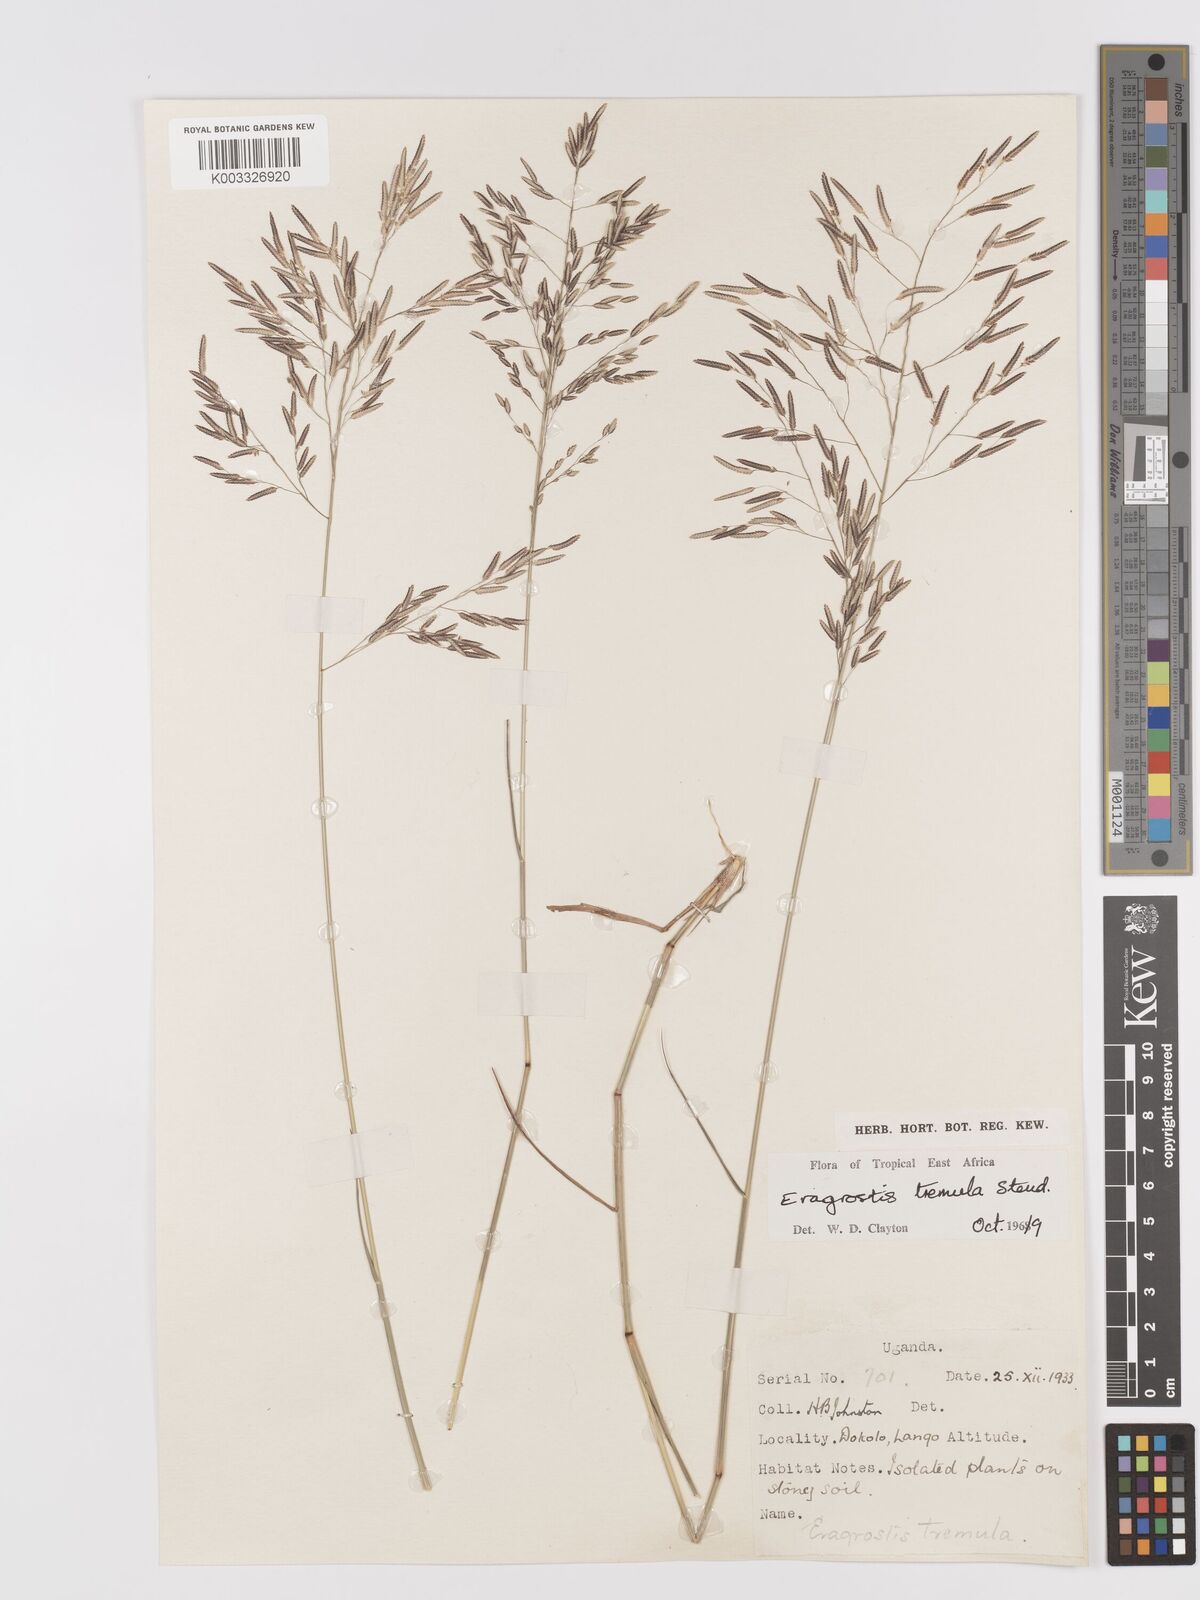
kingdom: Plantae
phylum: Tracheophyta
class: Liliopsida
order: Poales
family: Poaceae
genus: Eragrostis
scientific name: Eragrostis tremula
